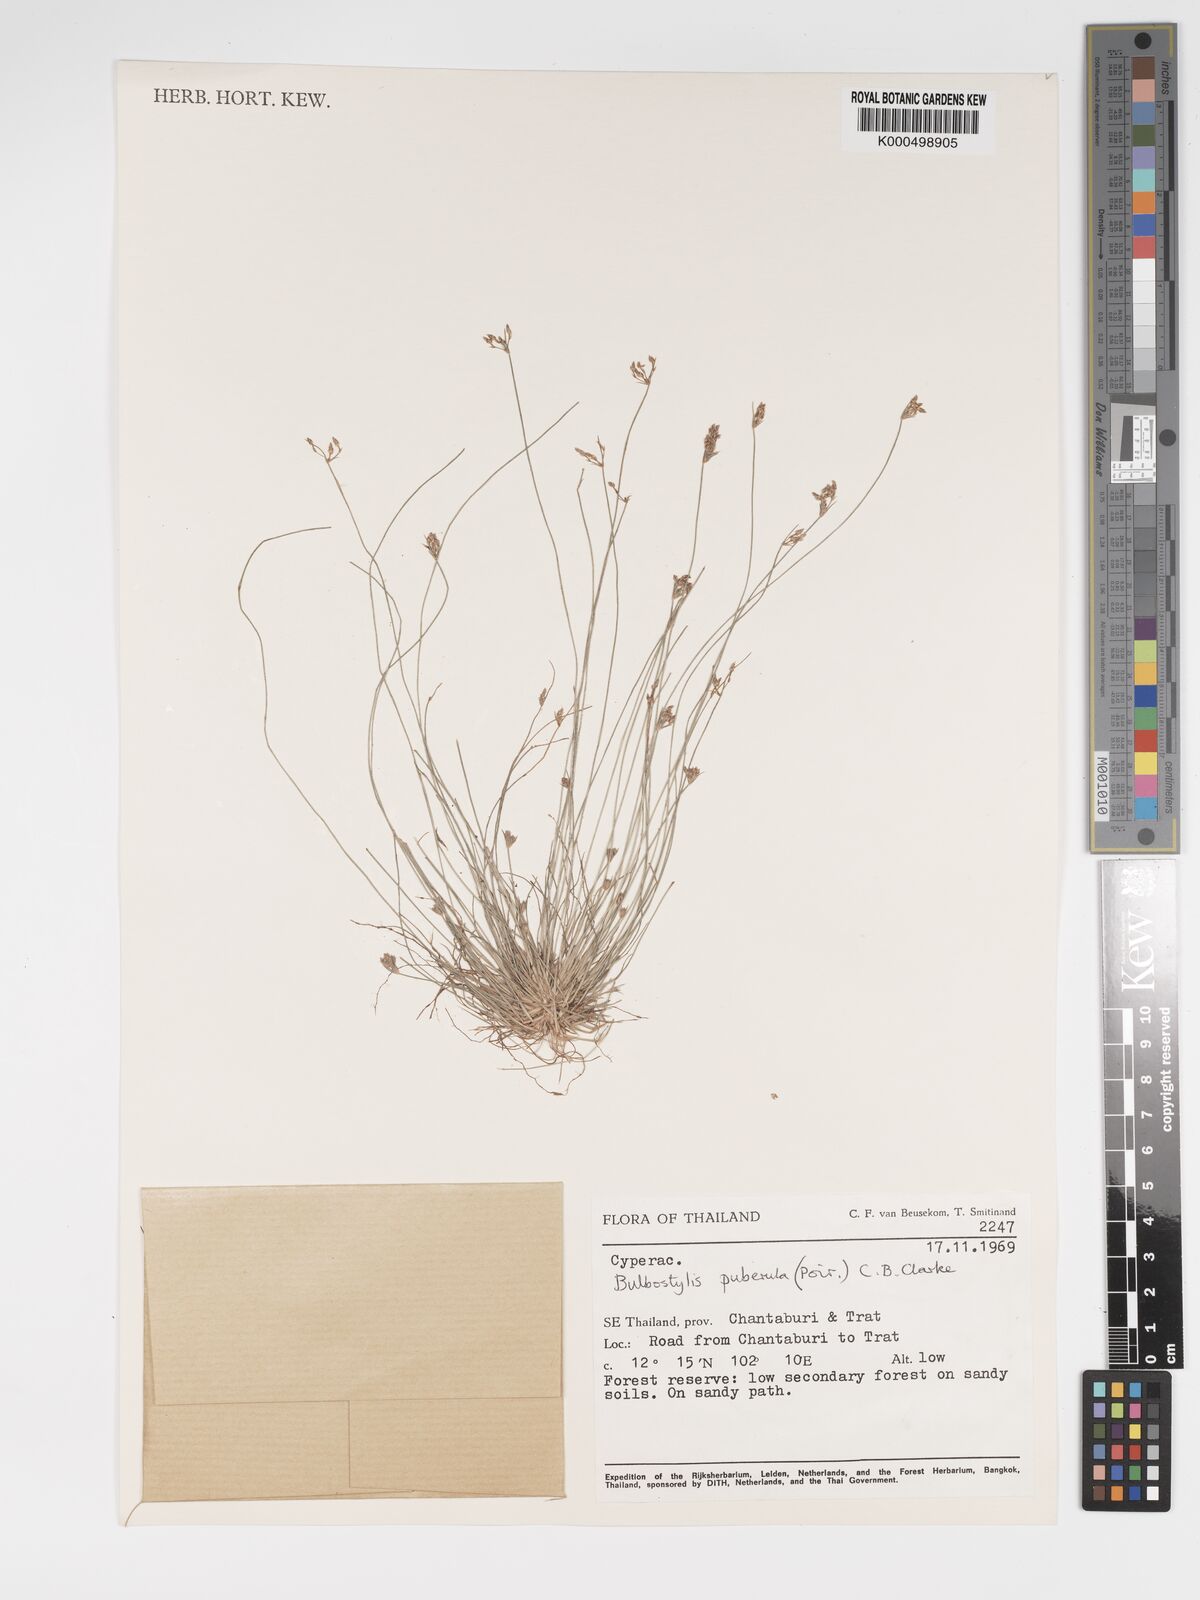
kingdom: Plantae
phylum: Tracheophyta
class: Liliopsida
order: Poales
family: Cyperaceae
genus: Bulbostylis
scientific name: Bulbostylis thouarsii
